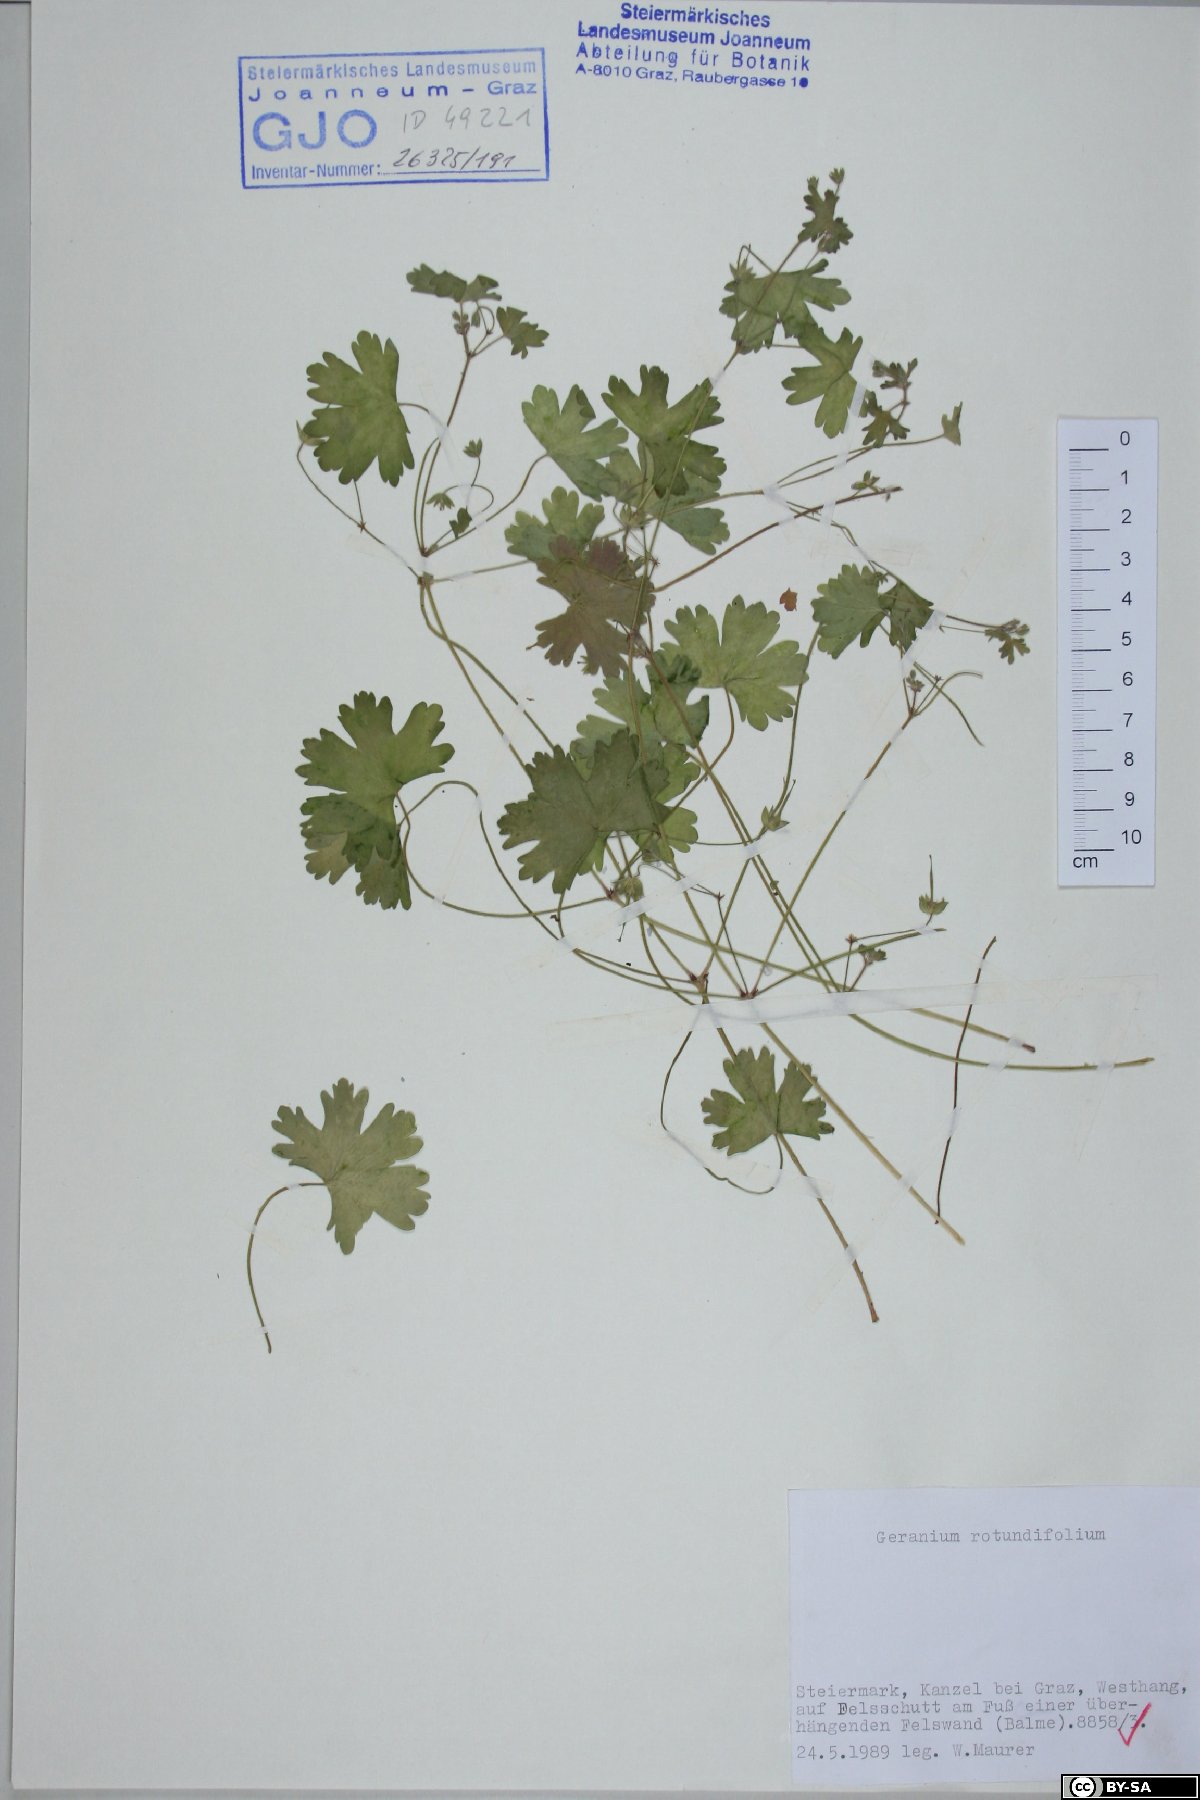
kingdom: Plantae
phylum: Tracheophyta
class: Magnoliopsida
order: Geraniales
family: Geraniaceae
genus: Geranium
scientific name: Geranium rotundifolium
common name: Round-leaved crane's-bill
